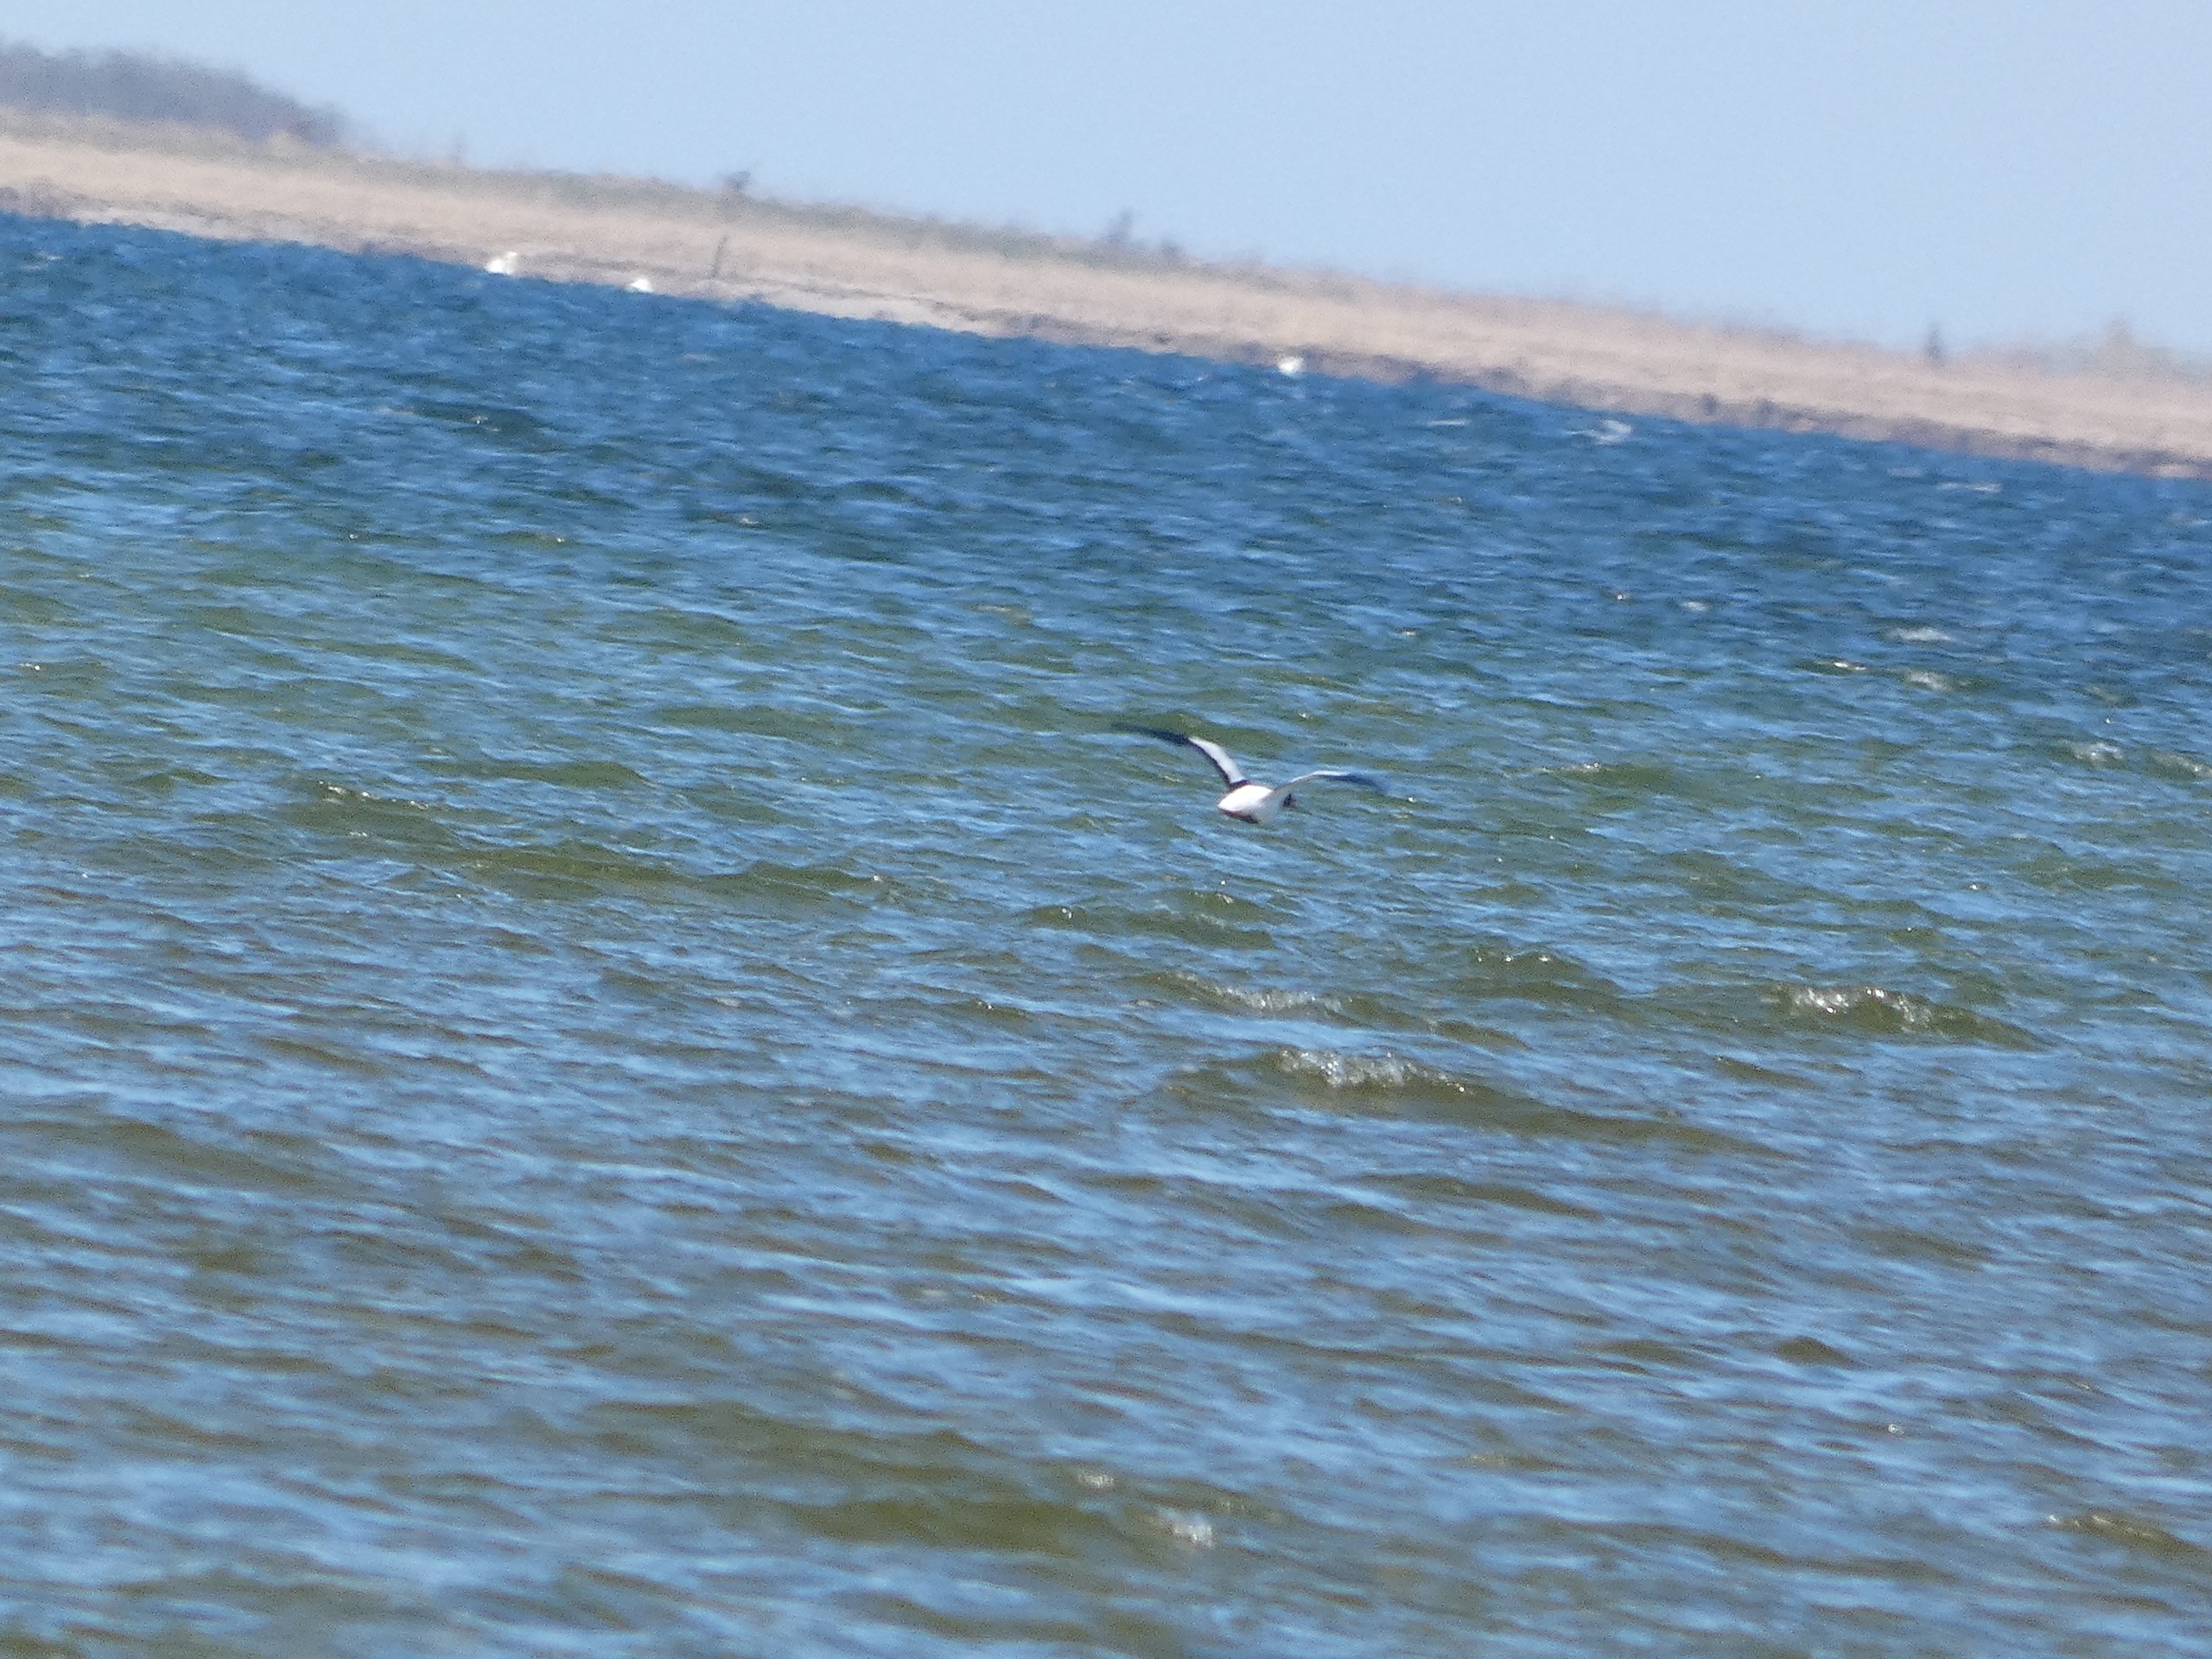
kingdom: Animalia
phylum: Chordata
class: Aves
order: Anseriformes
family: Anatidae
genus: Tadorna
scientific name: Tadorna tadorna
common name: Gravand
